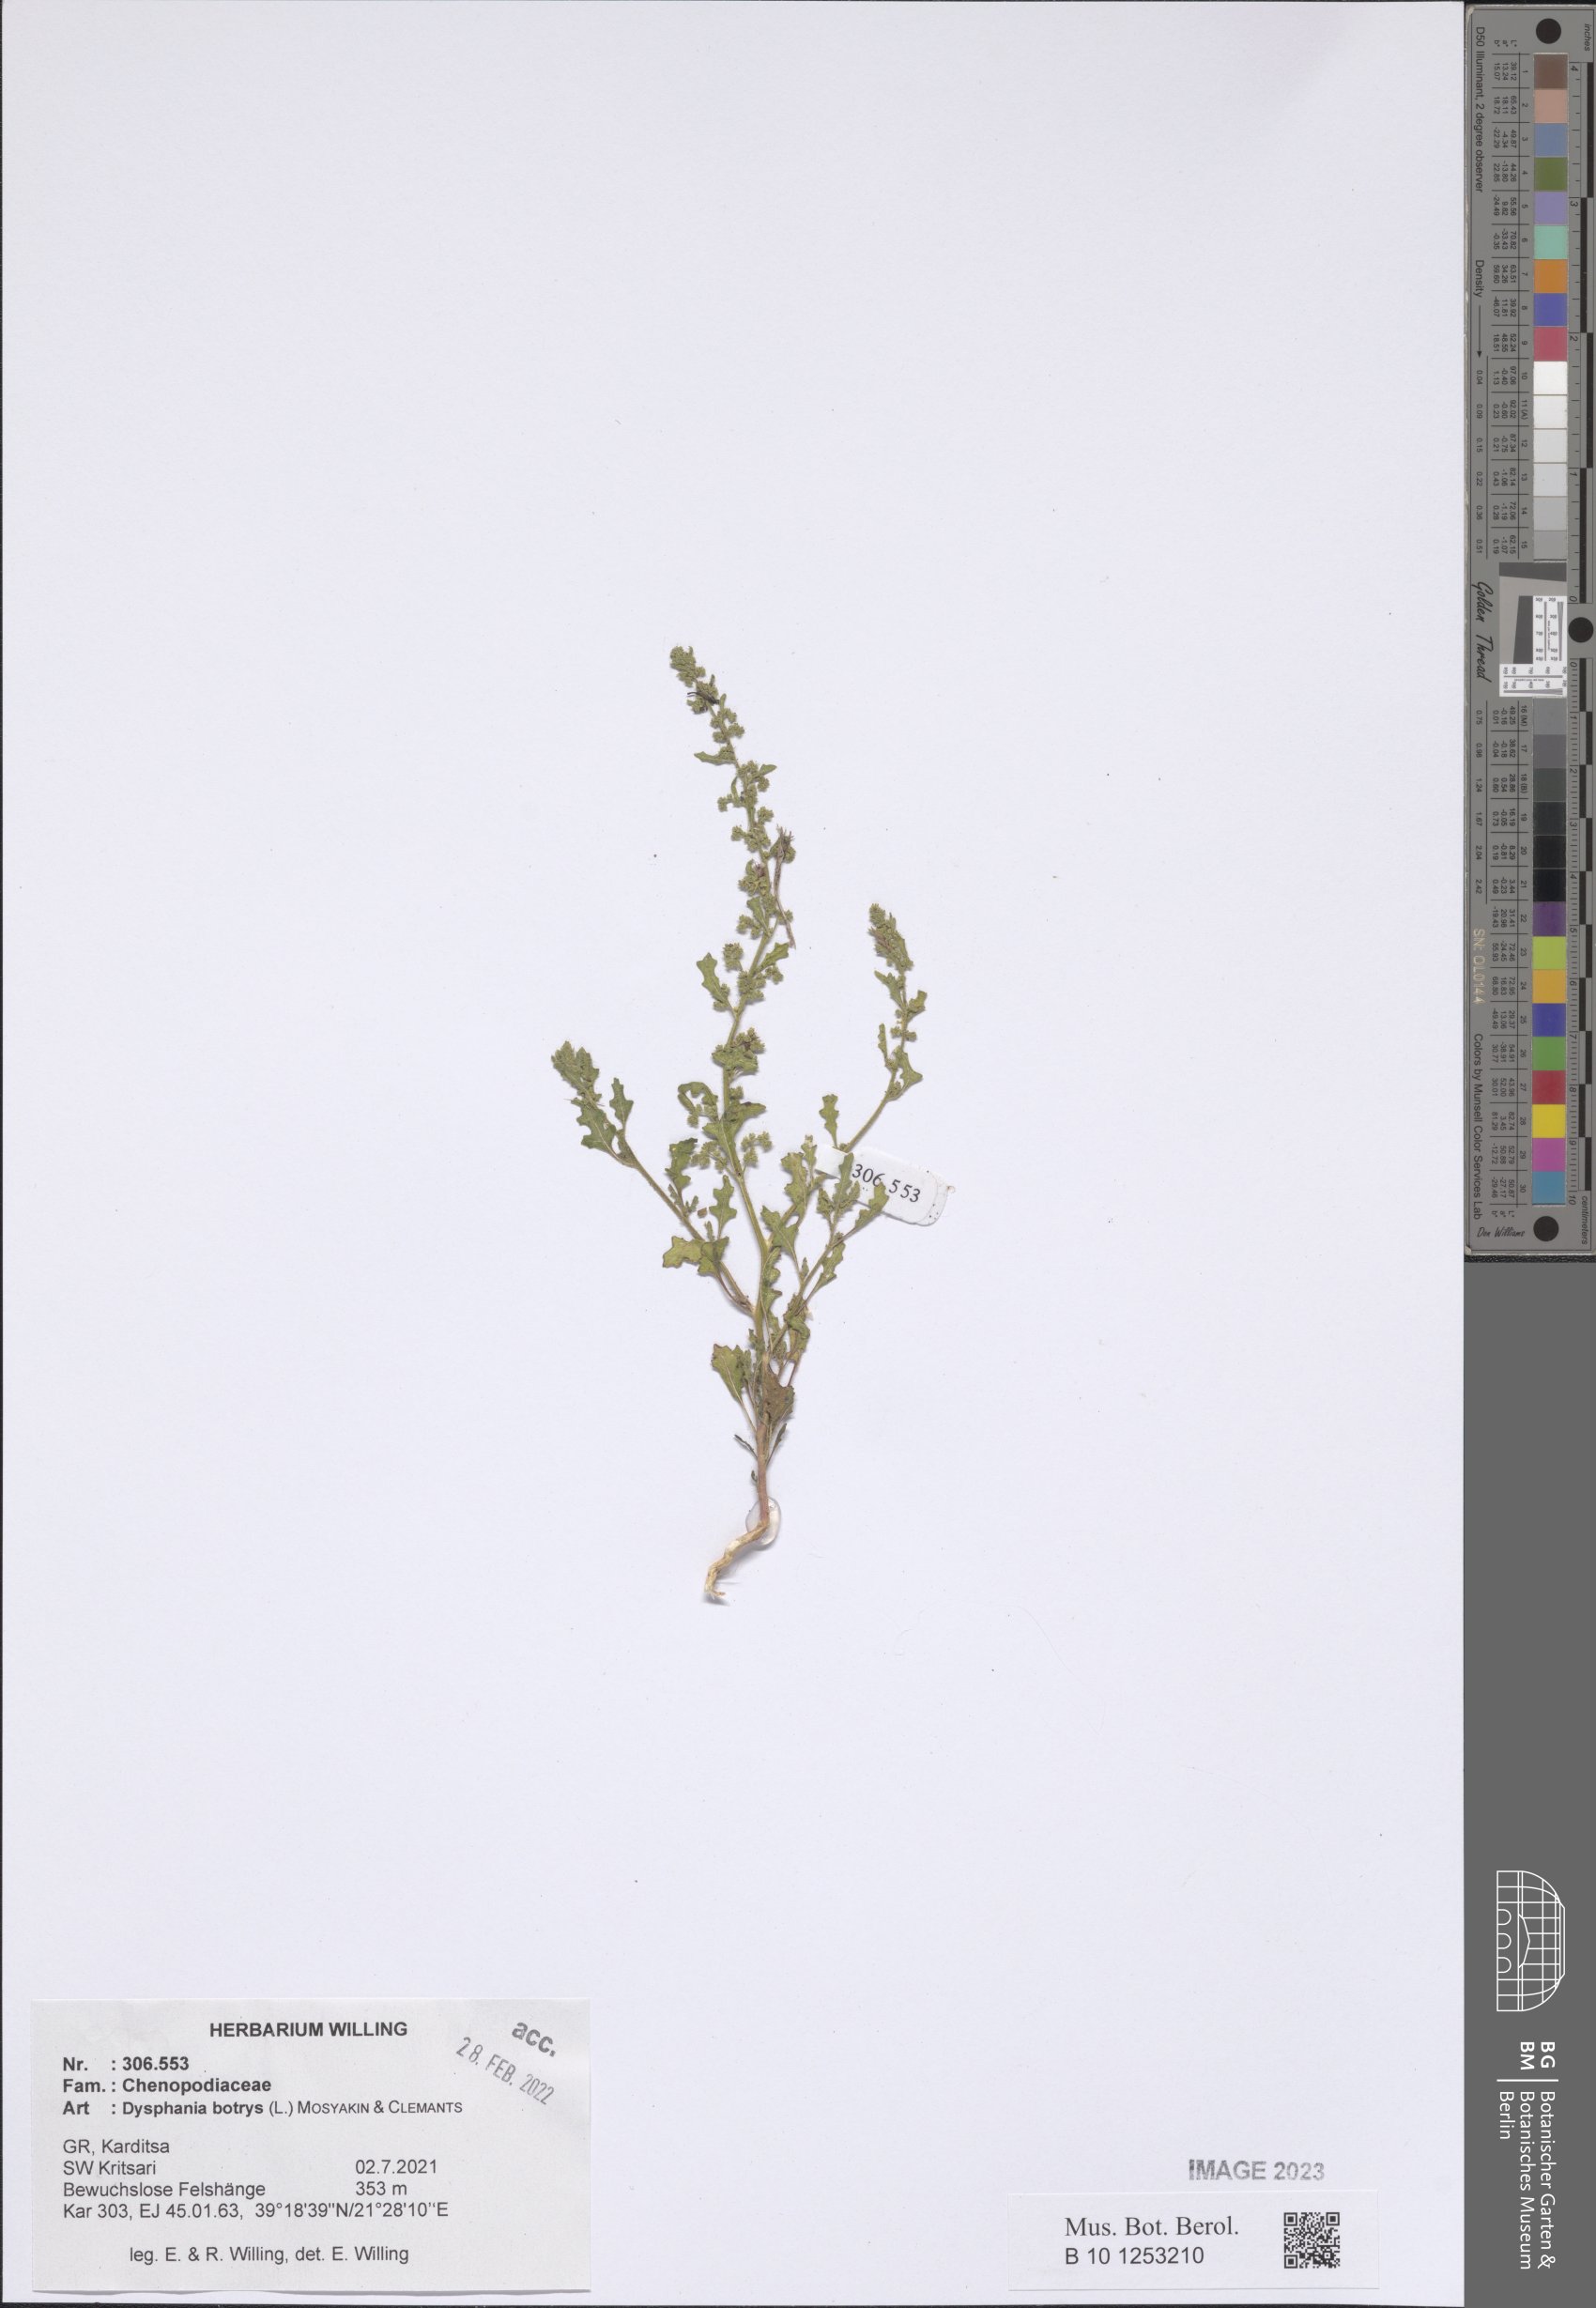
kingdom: Plantae
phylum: Tracheophyta
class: Magnoliopsida
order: Caryophyllales
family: Amaranthaceae
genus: Dysphania
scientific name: Dysphania botrys
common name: Feather-geranium
